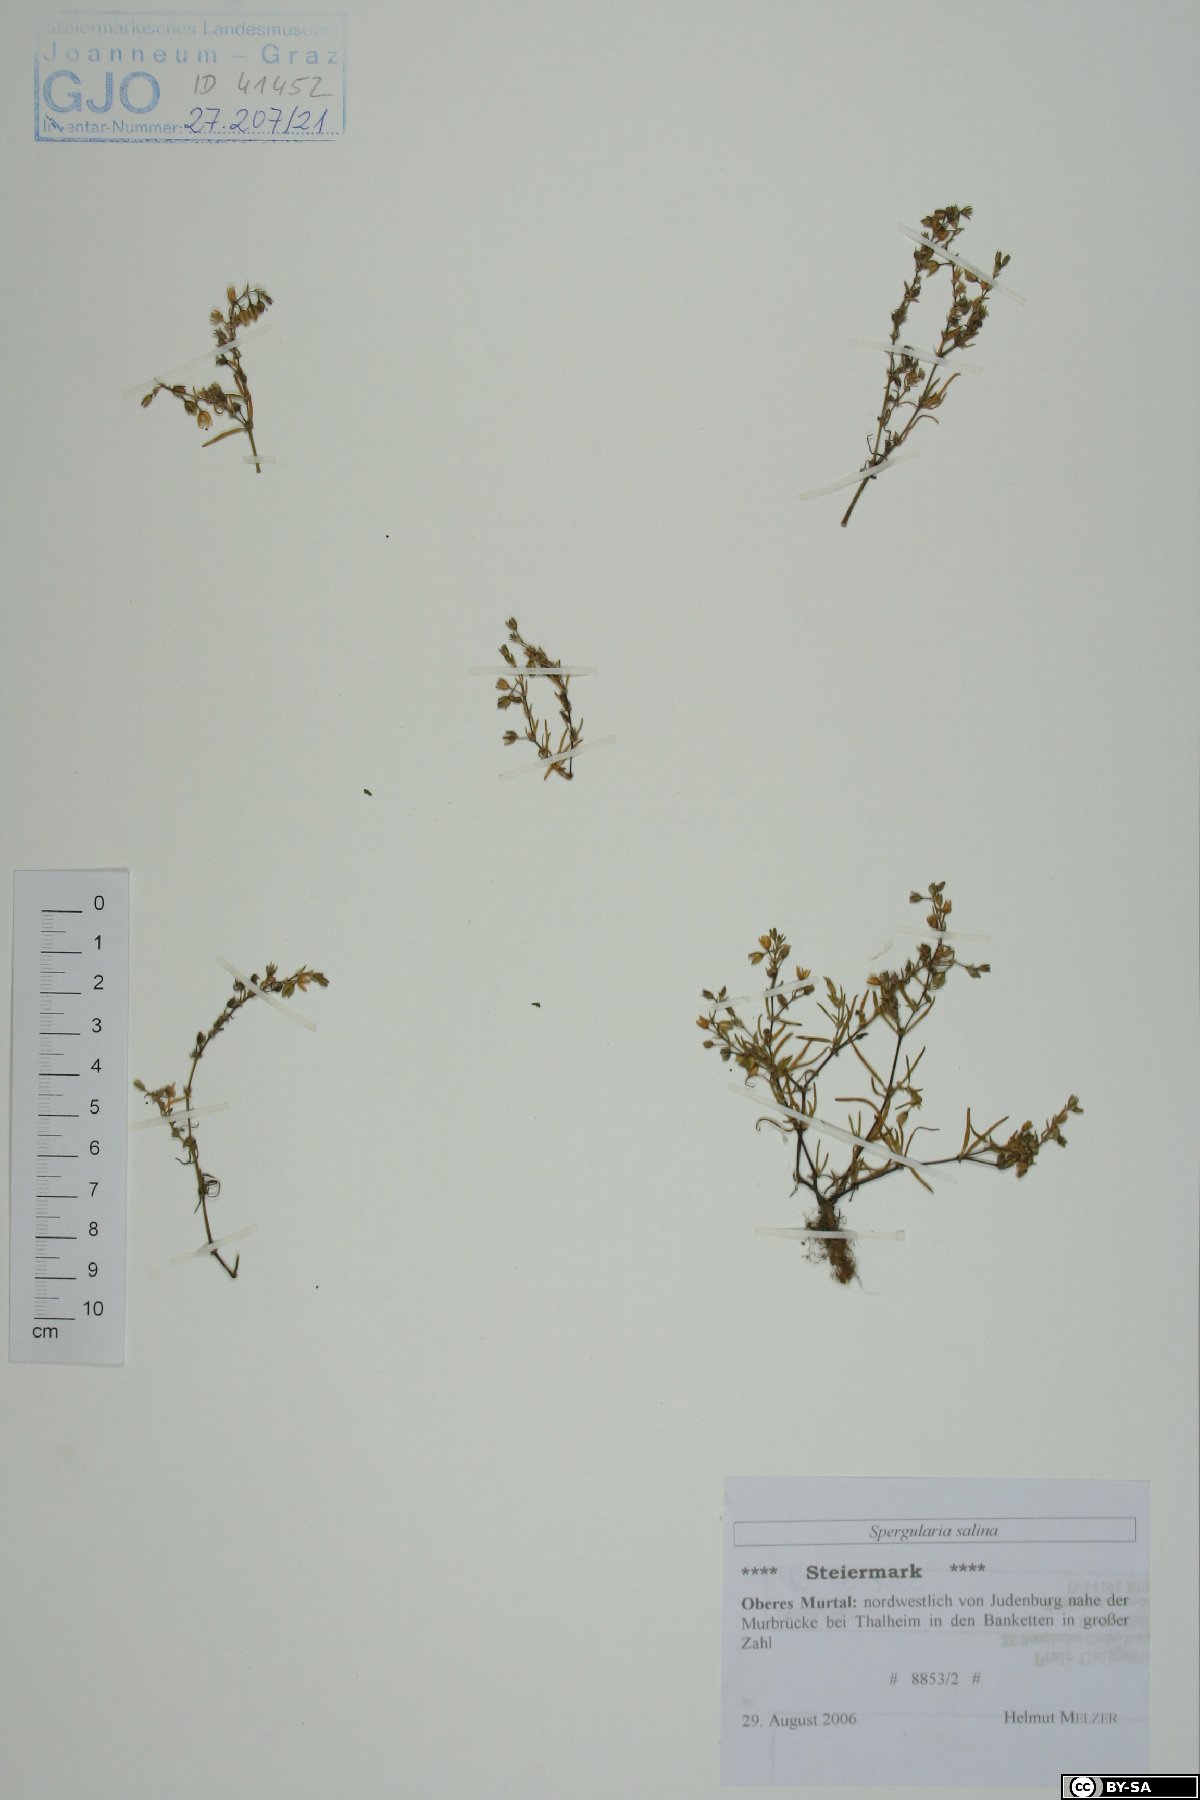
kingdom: Plantae
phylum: Tracheophyta
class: Magnoliopsida
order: Caryophyllales
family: Caryophyllaceae
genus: Spergularia
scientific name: Spergularia marina
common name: Lesser sea-spurrey
